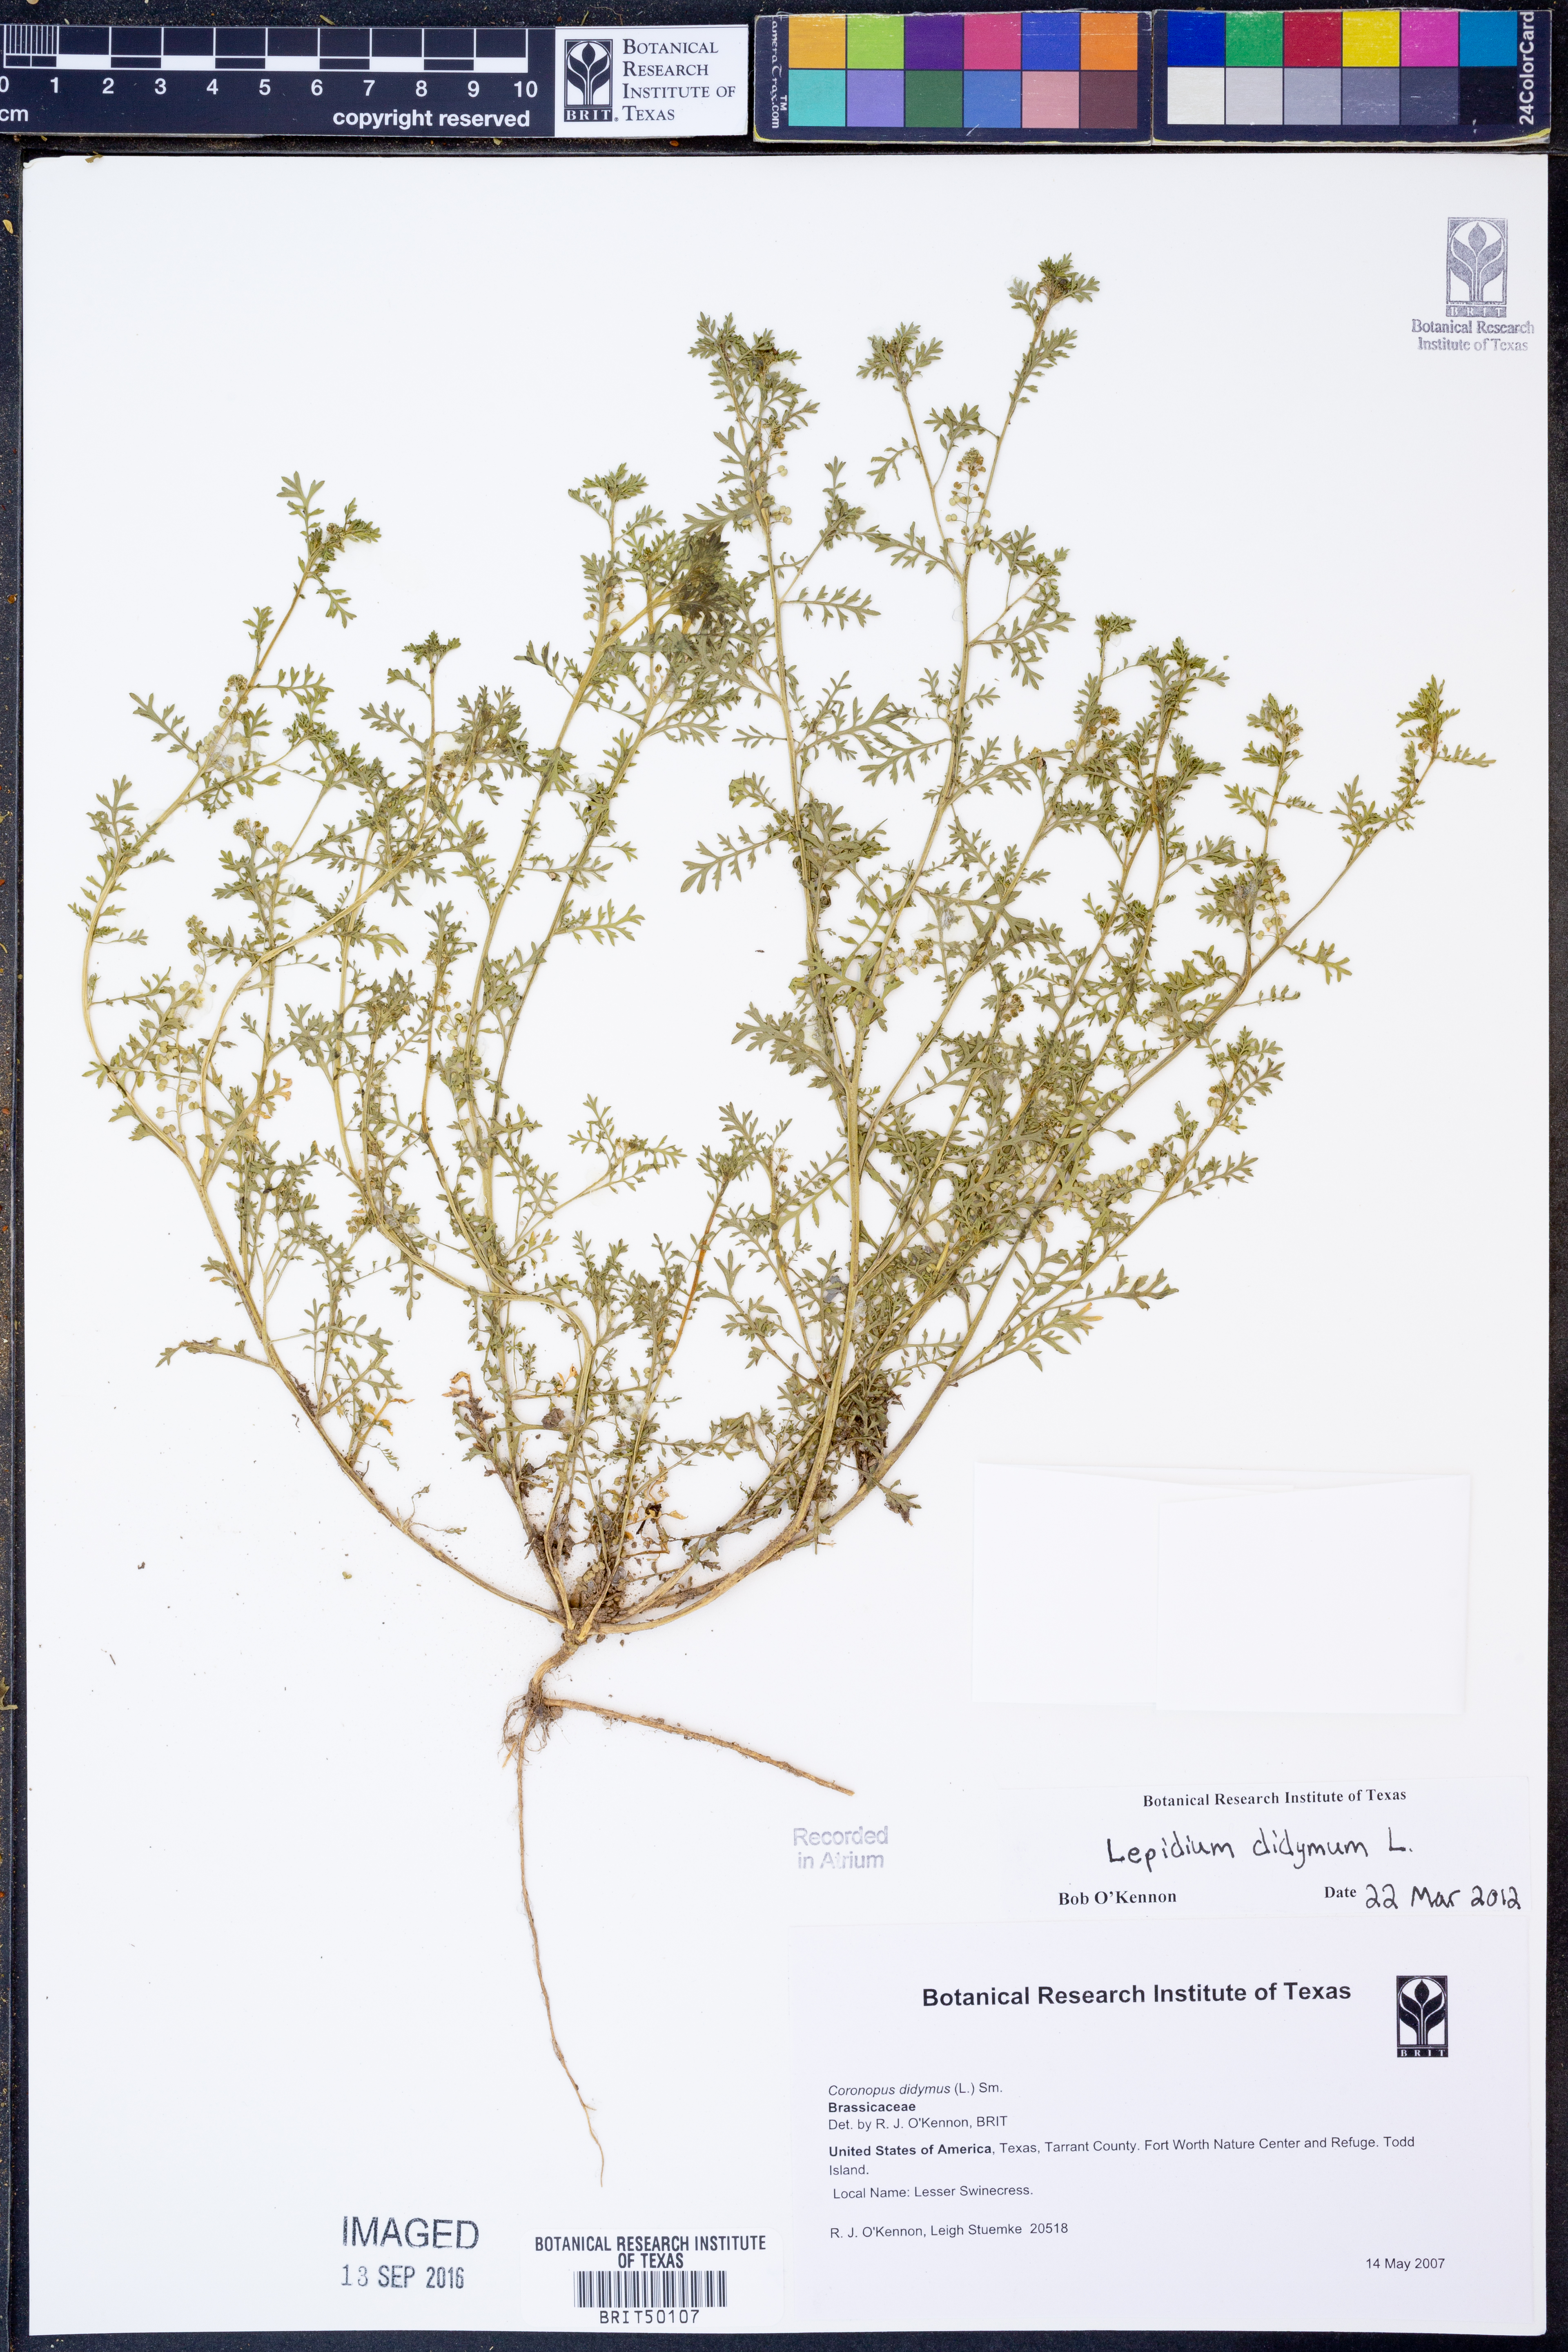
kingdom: Plantae
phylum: Tracheophyta
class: Magnoliopsida
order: Brassicales
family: Brassicaceae
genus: Lepidium
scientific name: Lepidium didymum
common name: Lesser swinecress
